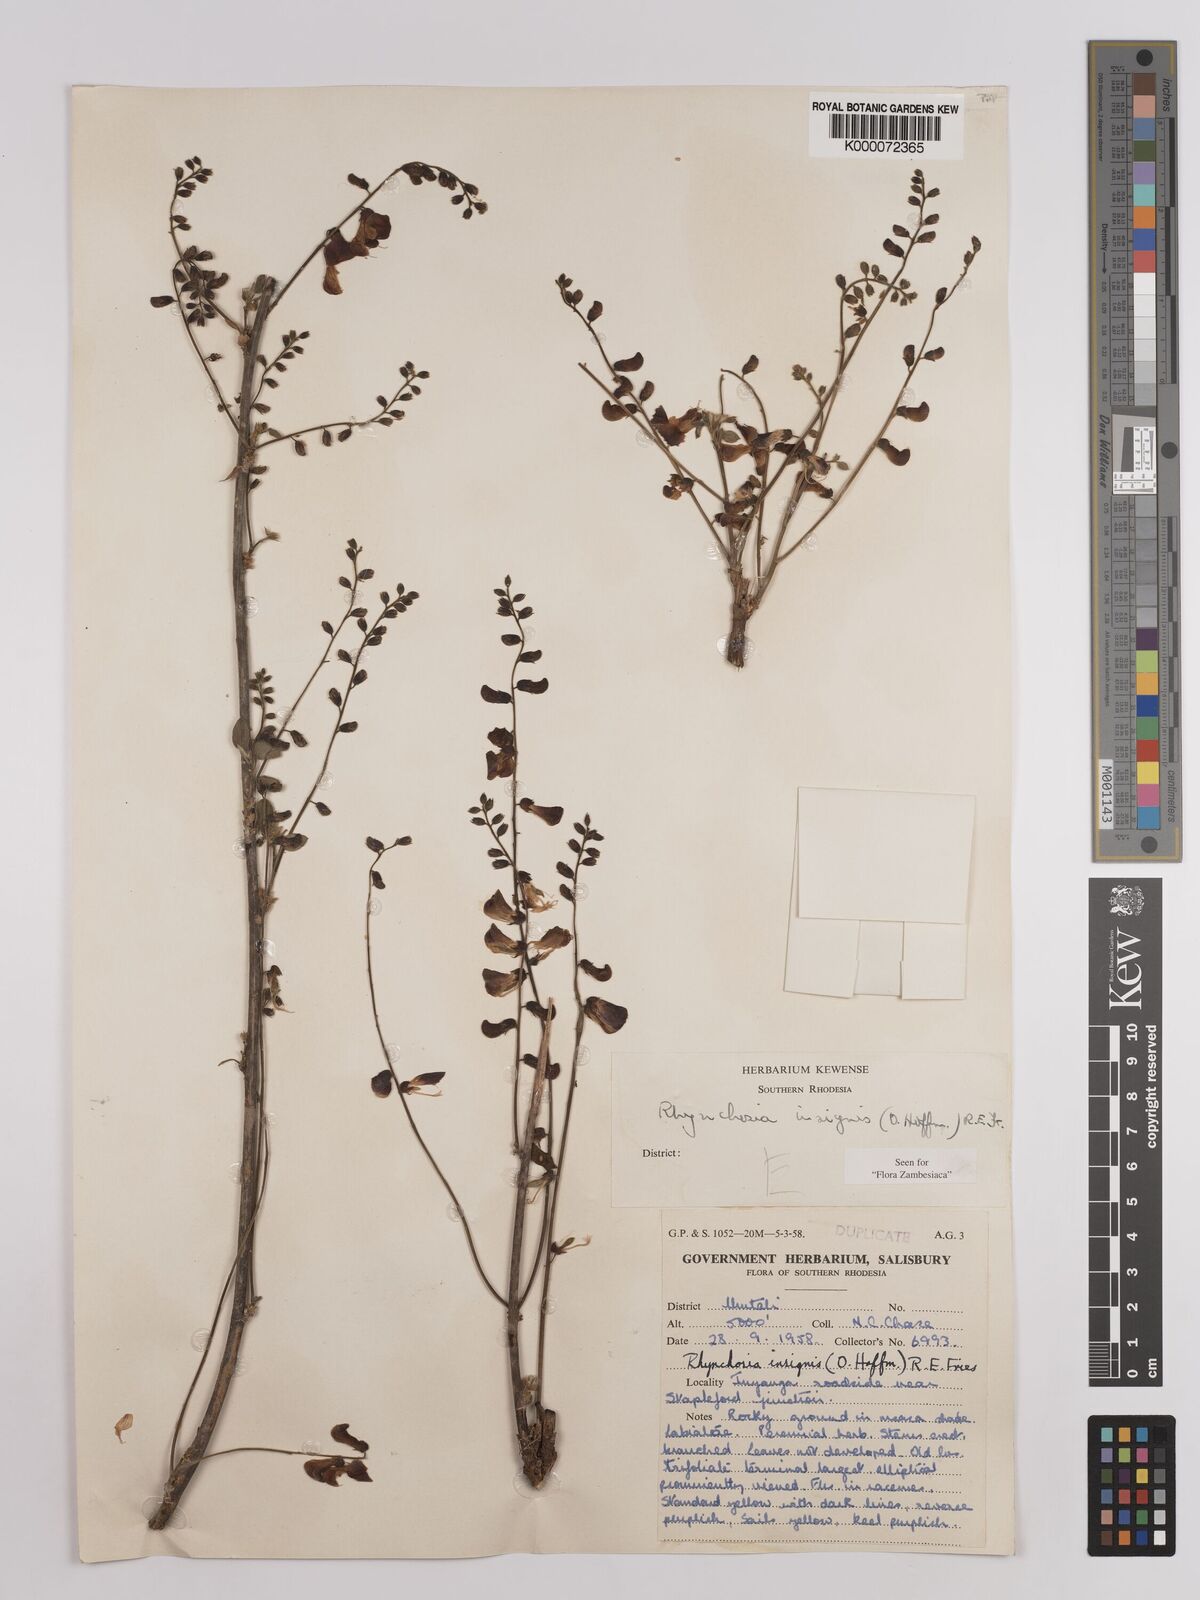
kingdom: Plantae
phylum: Tracheophyta
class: Magnoliopsida
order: Fabales
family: Fabaceae
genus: Rhynchosia
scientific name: Rhynchosia insignis
